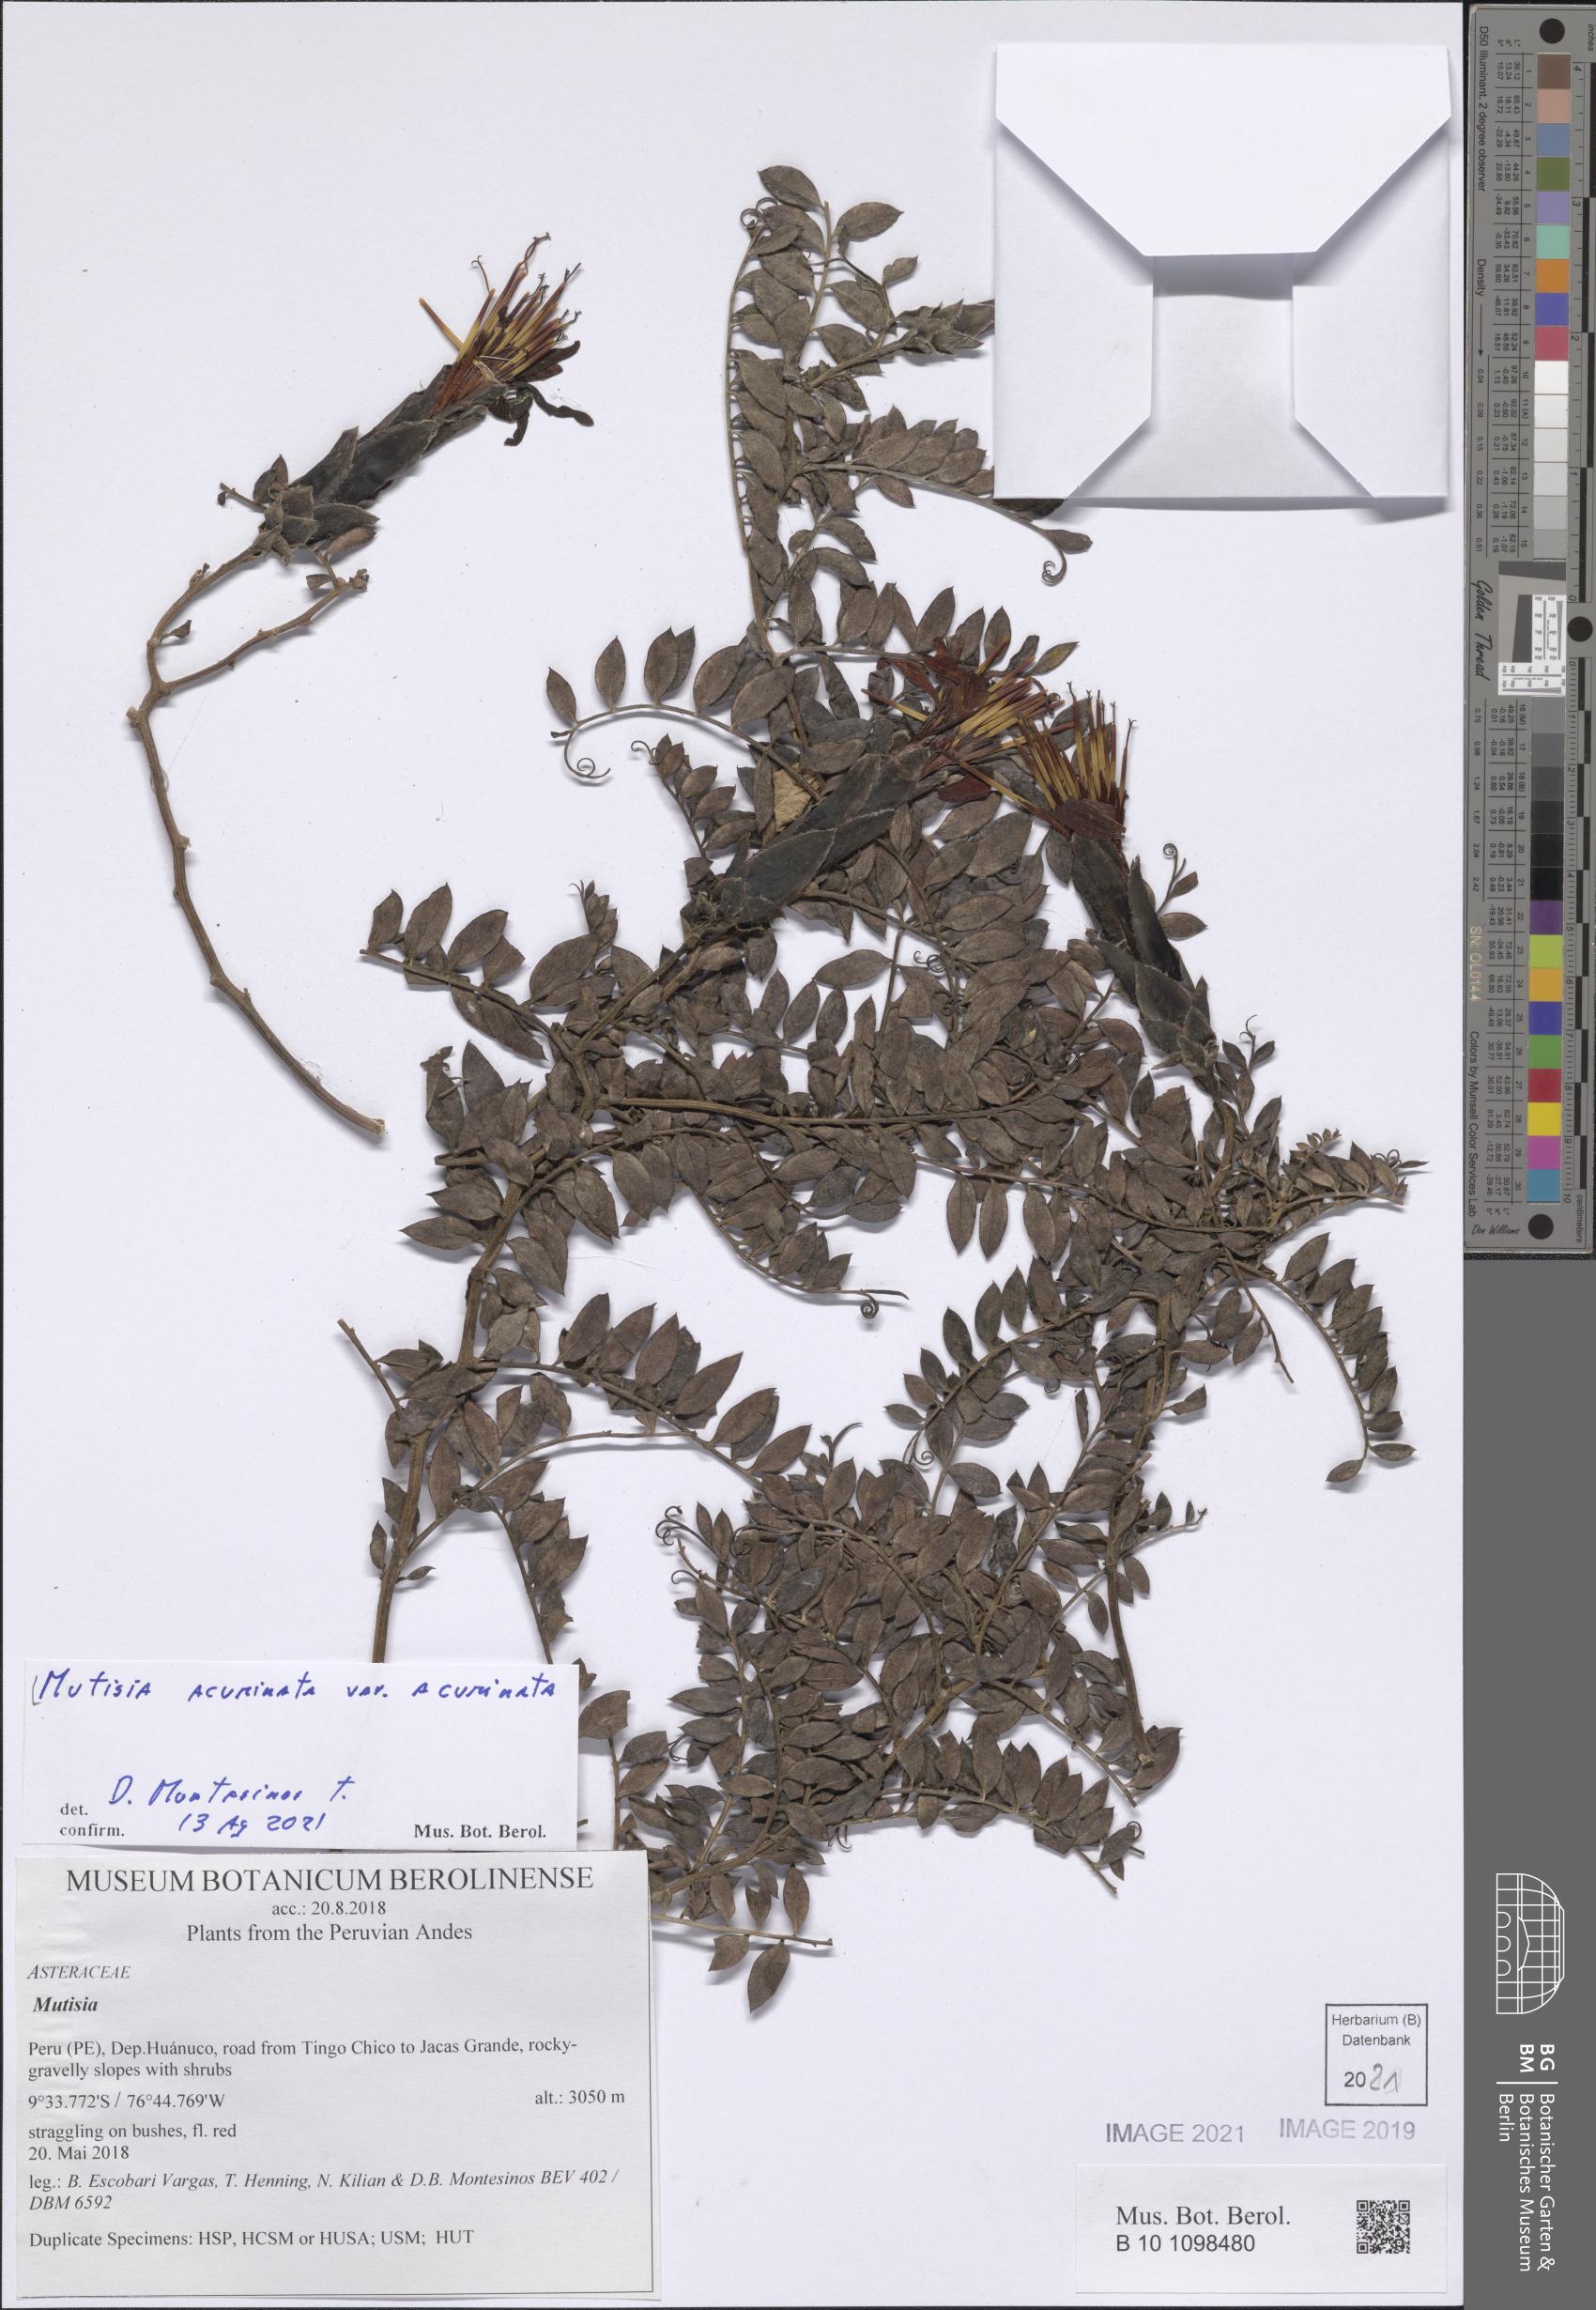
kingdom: Plantae
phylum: Tracheophyta
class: Magnoliopsida
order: Asterales
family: Asteraceae
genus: Mutisia
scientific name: Mutisia acuminata
